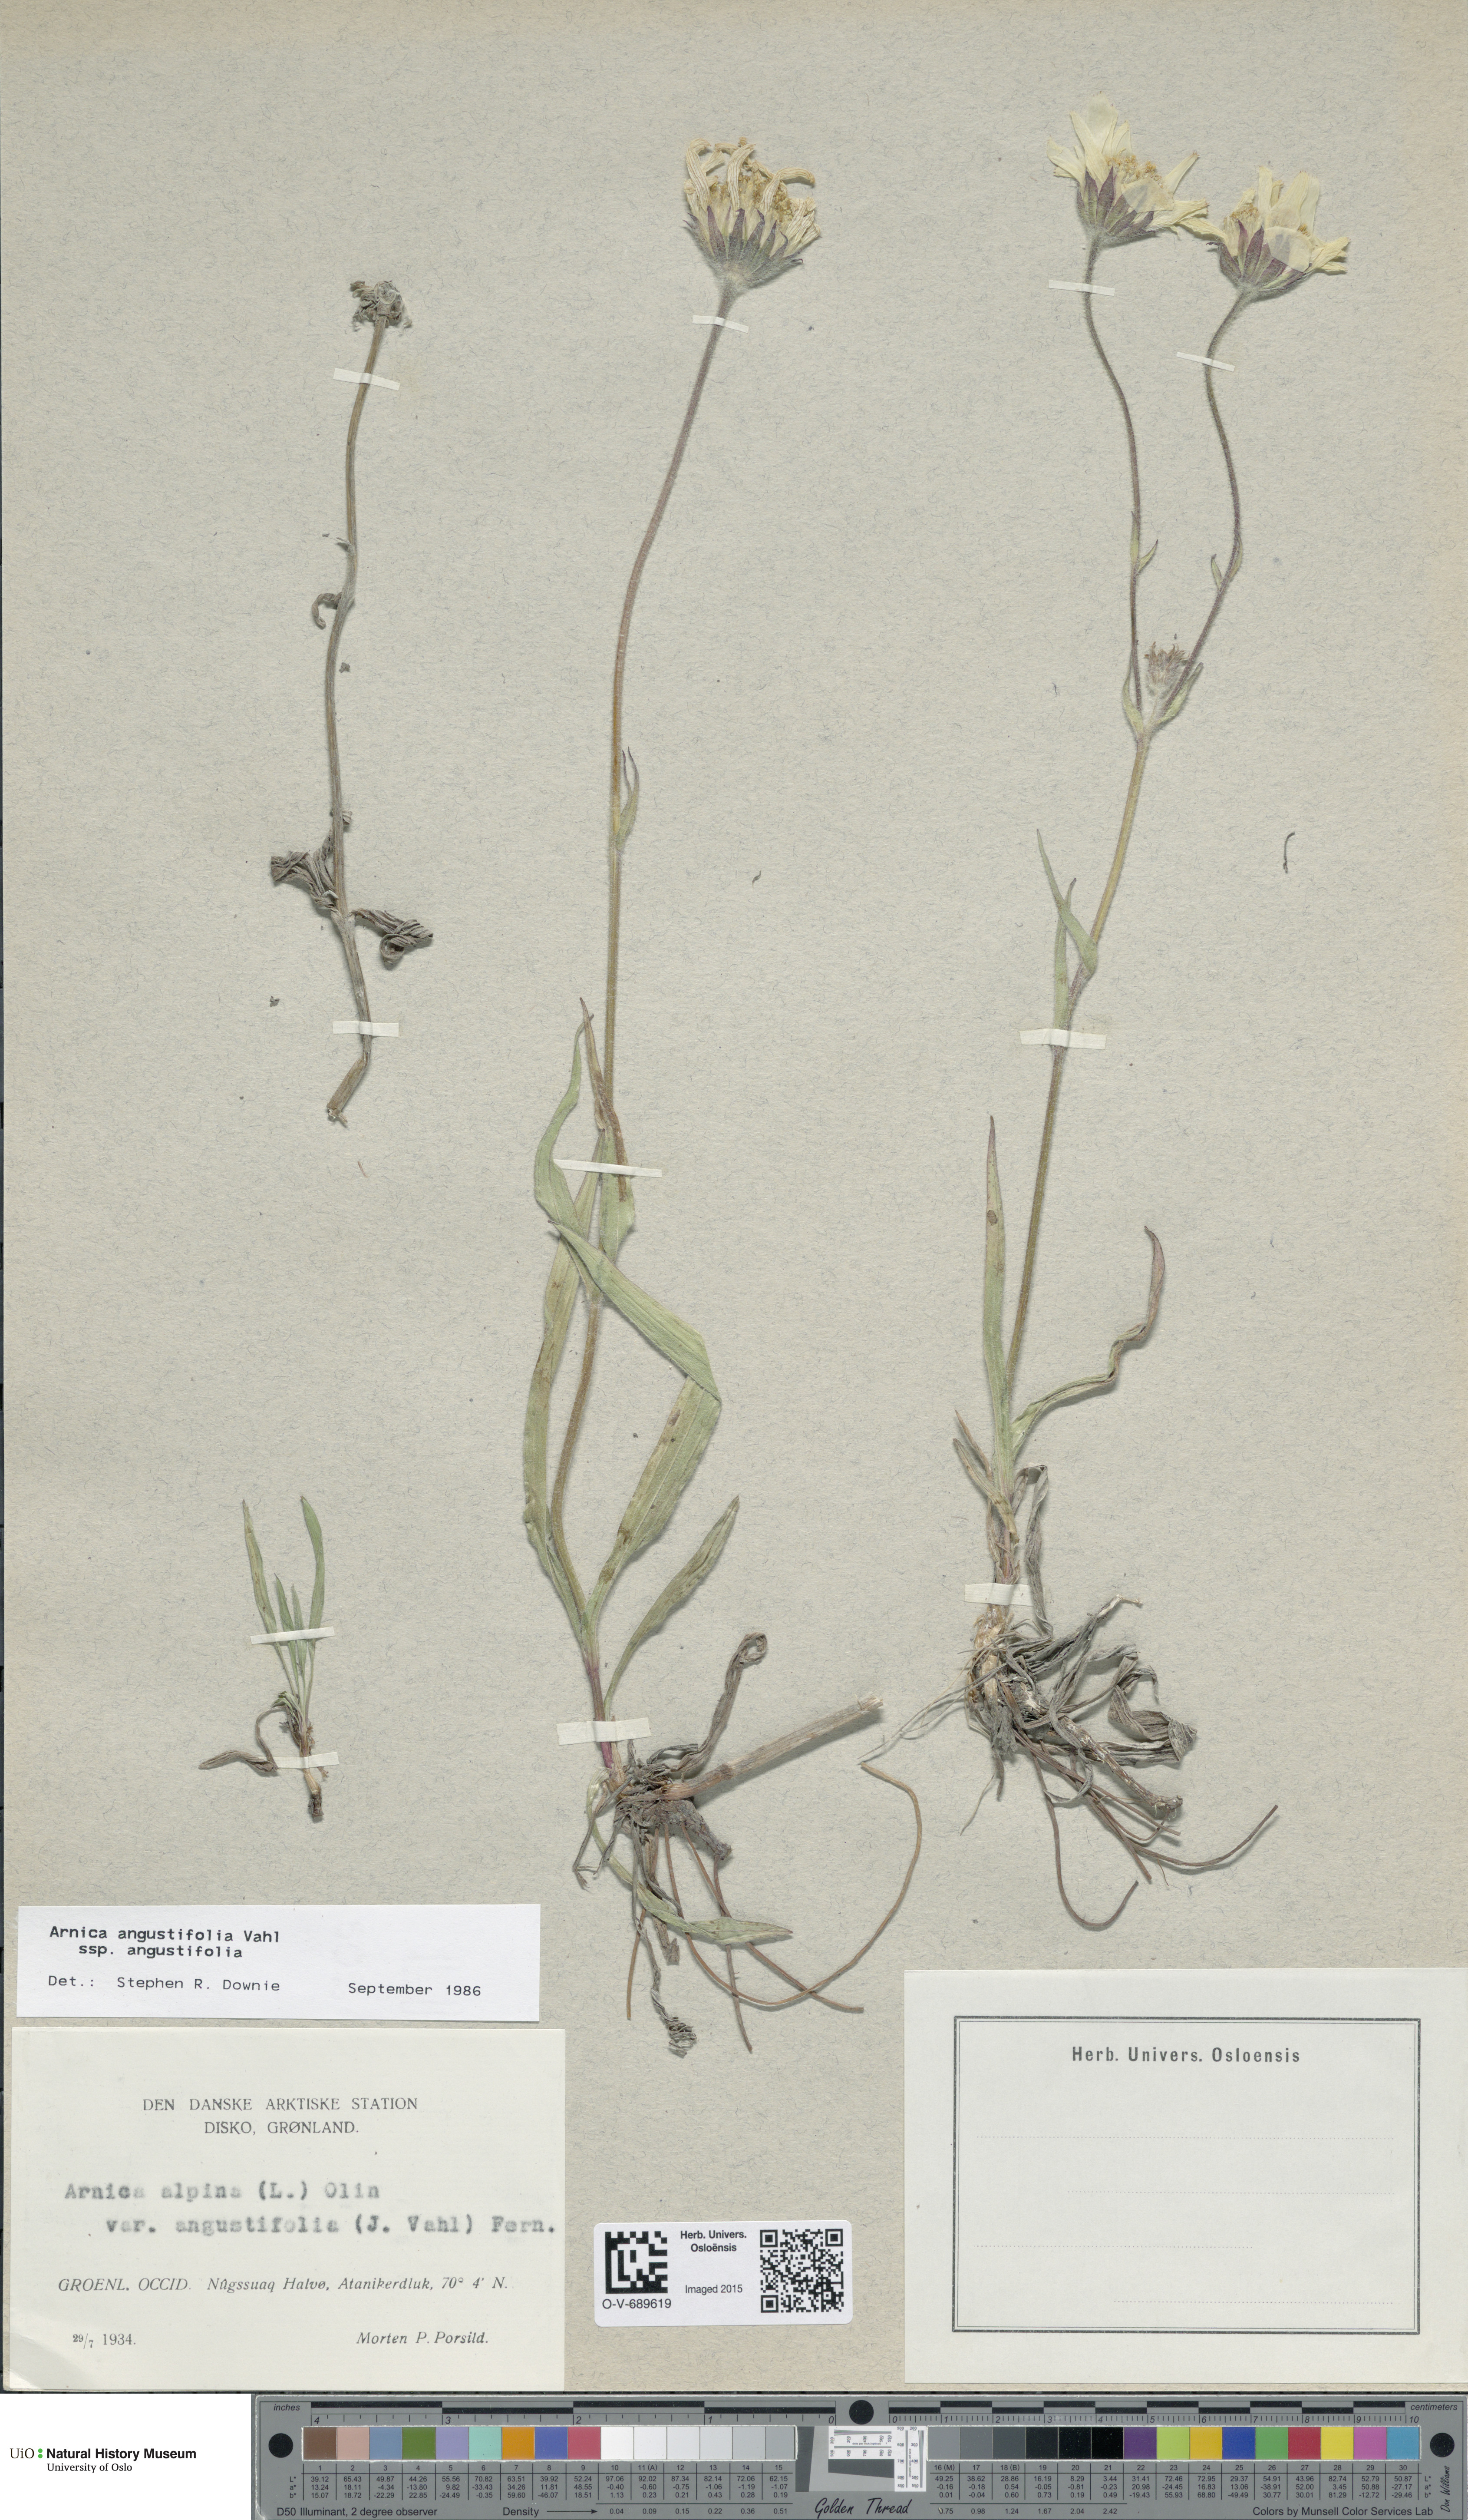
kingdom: Plantae
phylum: Tracheophyta
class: Magnoliopsida
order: Asterales
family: Asteraceae
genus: Arnica
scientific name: Arnica angustifolia
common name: Arctic arnica
